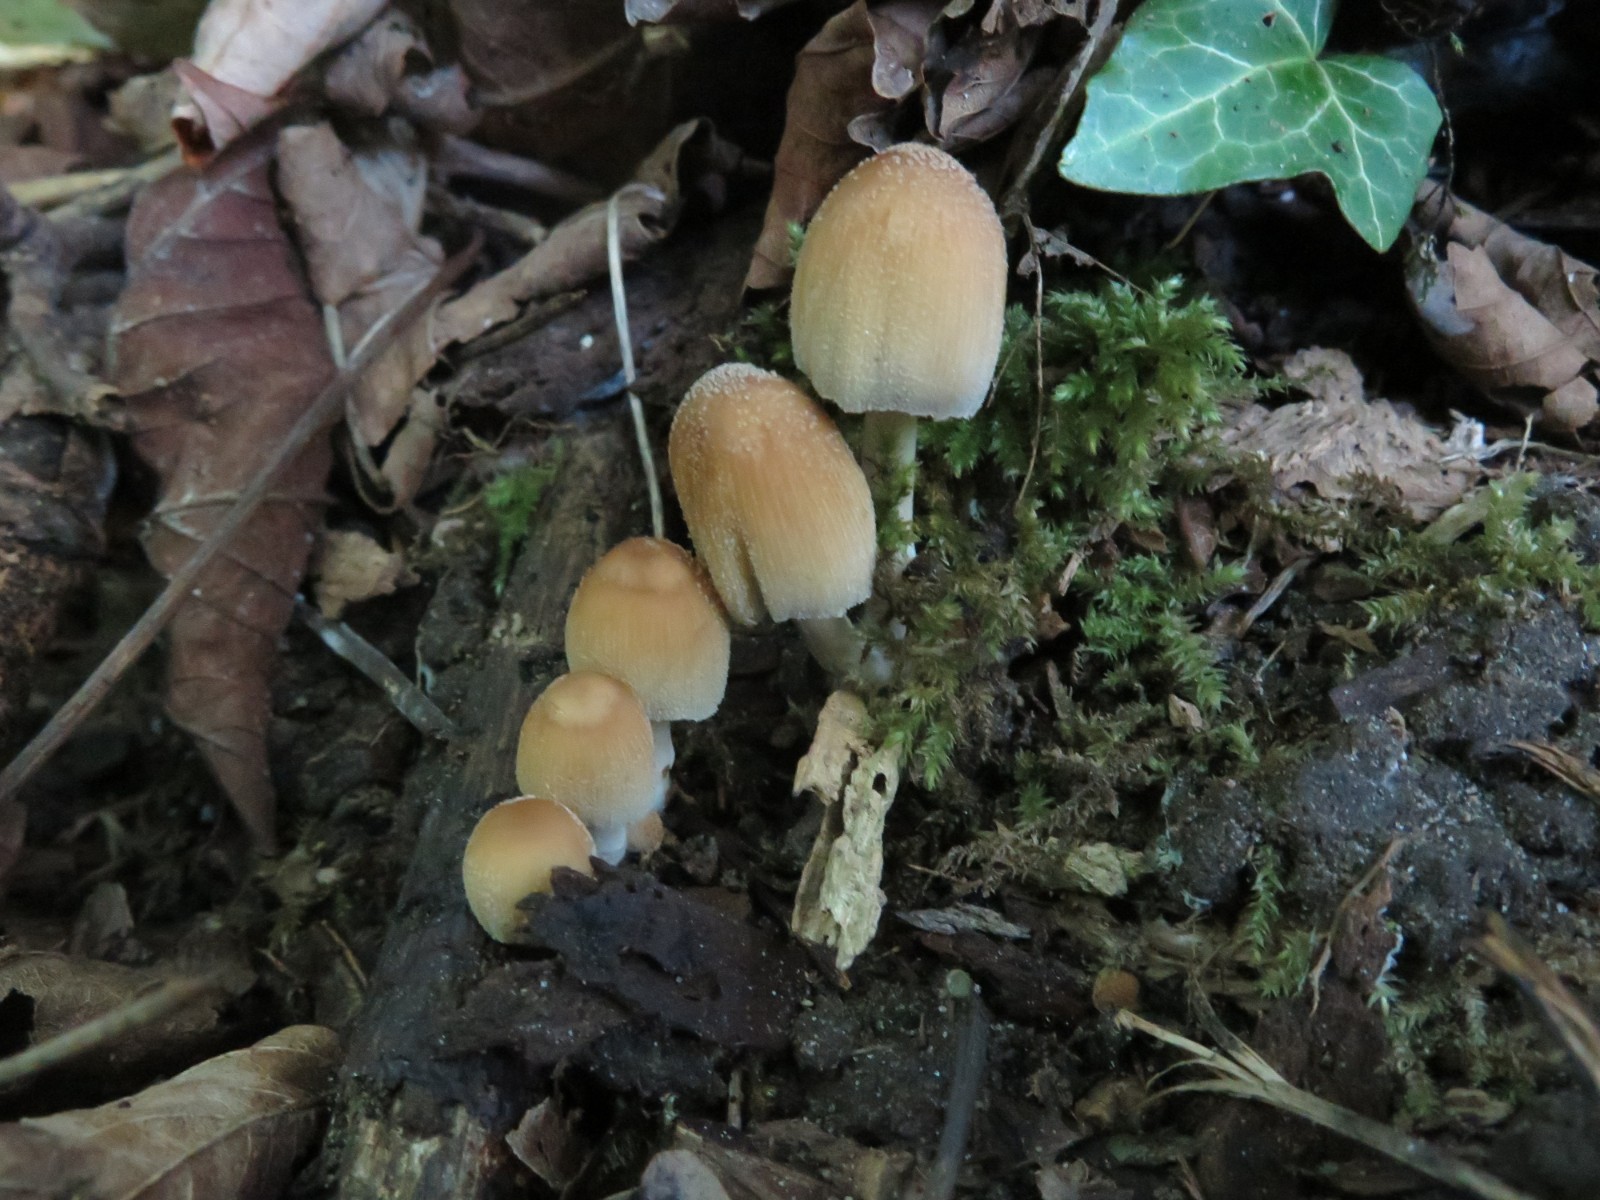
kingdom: Fungi
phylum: Basidiomycota
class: Agaricomycetes
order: Agaricales
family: Psathyrellaceae
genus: Coprinellus
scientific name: Coprinellus micaceus
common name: glimmer-blækhat
